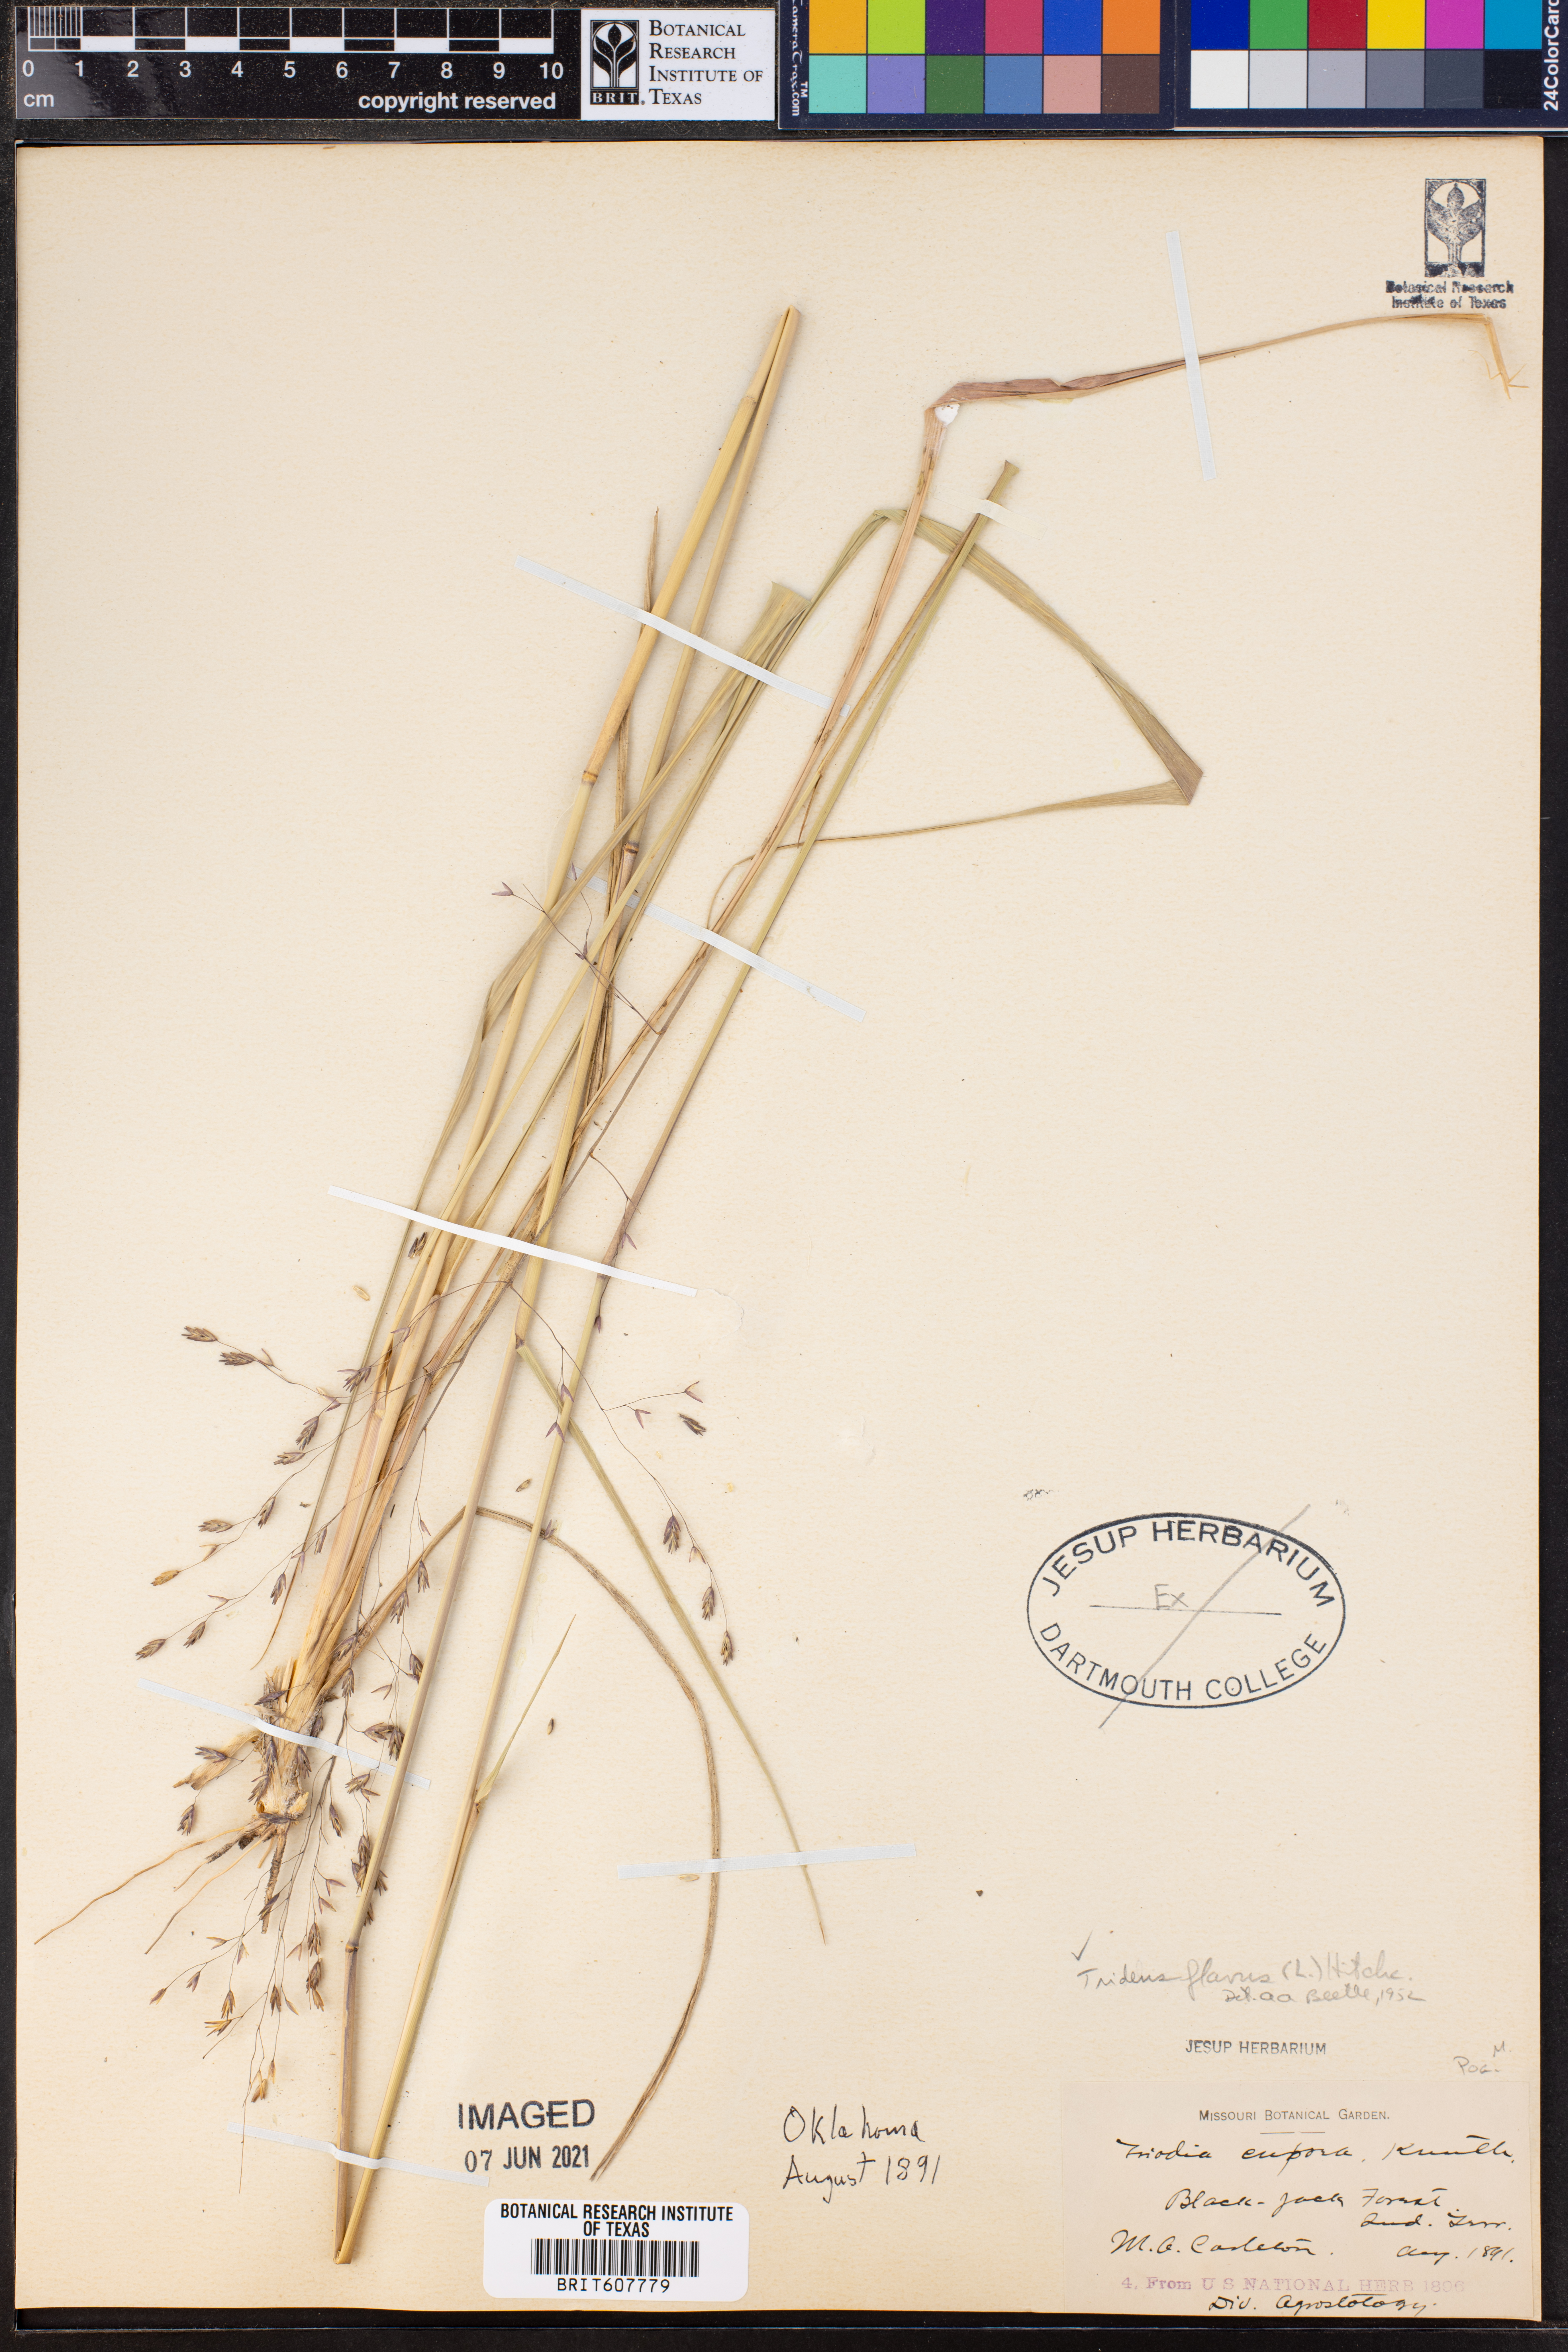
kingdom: Plantae
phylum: Tracheophyta
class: Liliopsida
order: Poales
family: Poaceae
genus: Tridens
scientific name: Tridens flavus
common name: Purpletop
